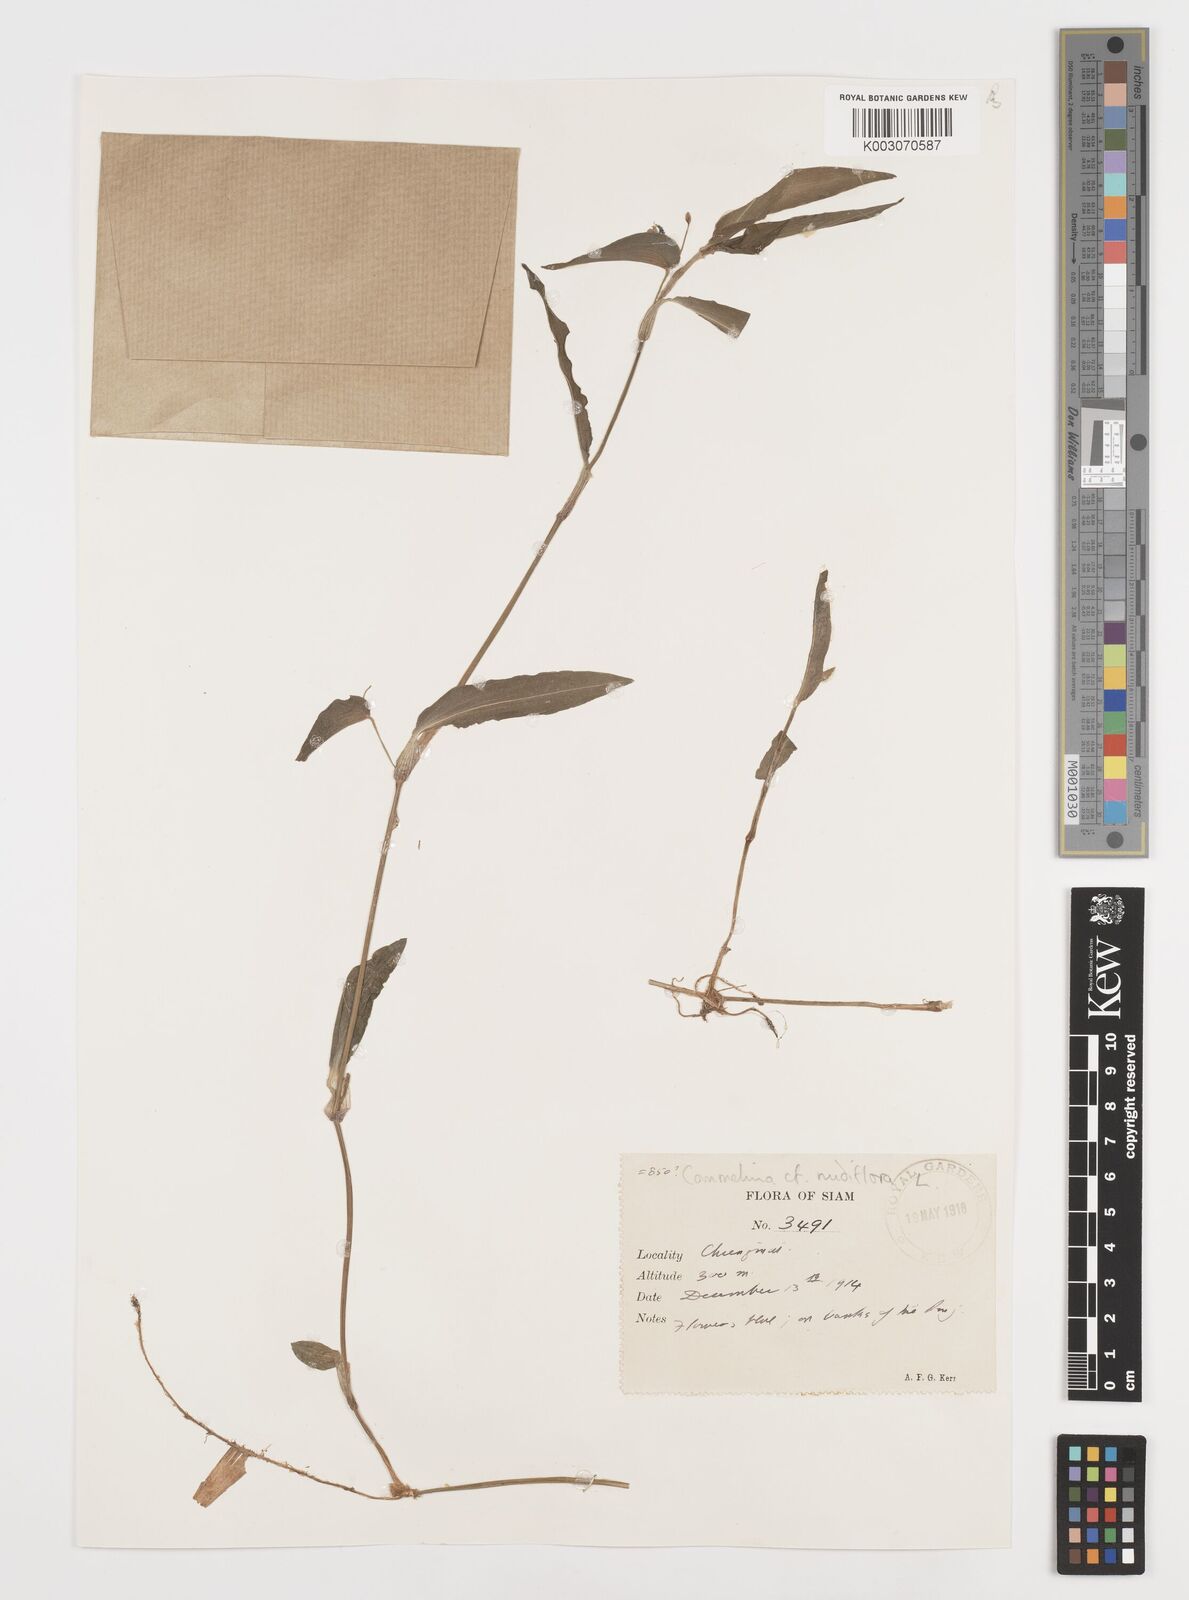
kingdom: Plantae
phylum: Tracheophyta
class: Liliopsida
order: Commelinales
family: Commelinaceae
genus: Commelina
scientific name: Commelina clavata
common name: Willow leaved dayflower
